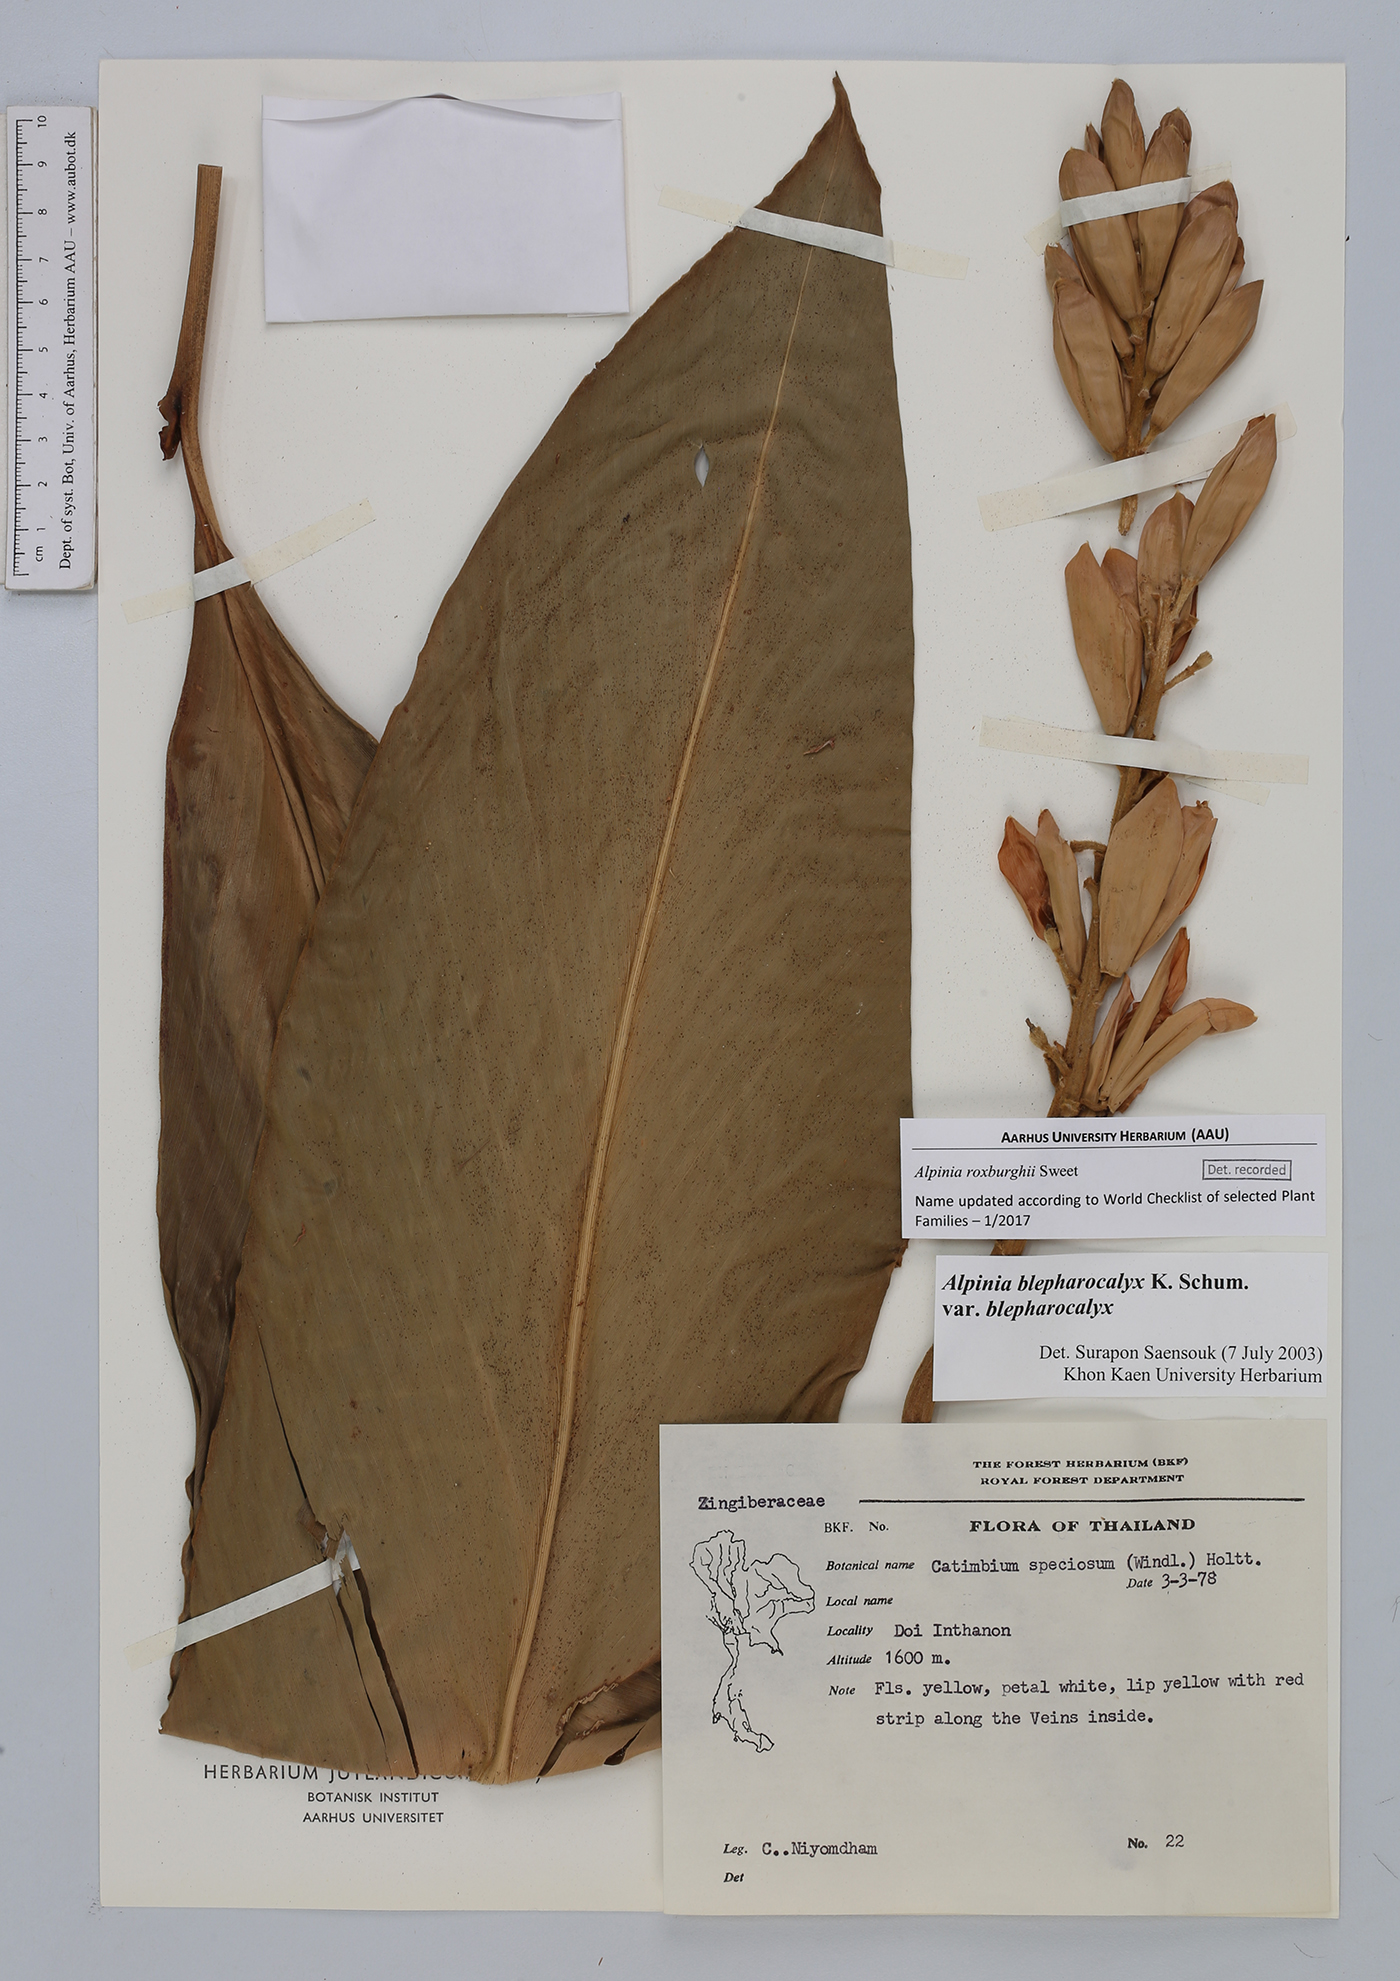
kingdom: Plantae
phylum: Tracheophyta
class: Liliopsida
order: Zingiberales
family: Zingiberaceae
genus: Alpinia
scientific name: Alpinia roxburghii
